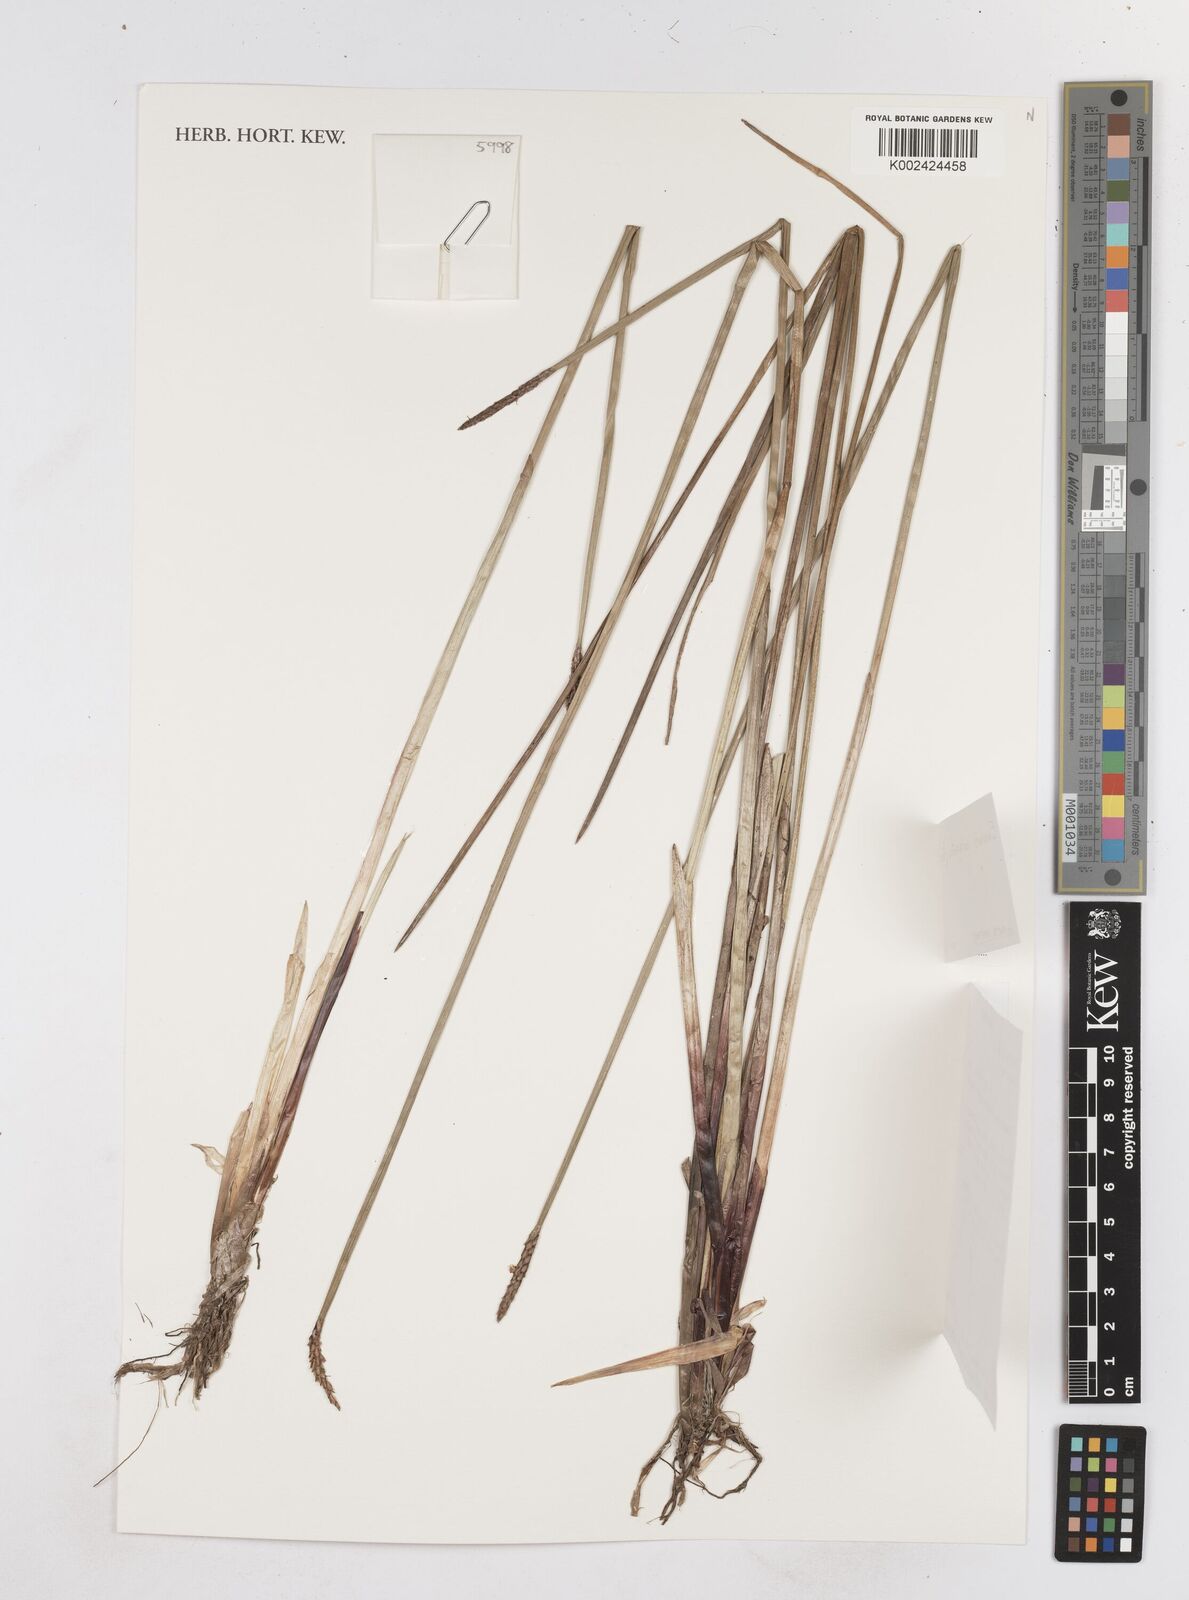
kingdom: Plantae
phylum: Tracheophyta
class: Liliopsida
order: Poales
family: Cyperaceae
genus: Eleocharis
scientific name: Eleocharis variegata
